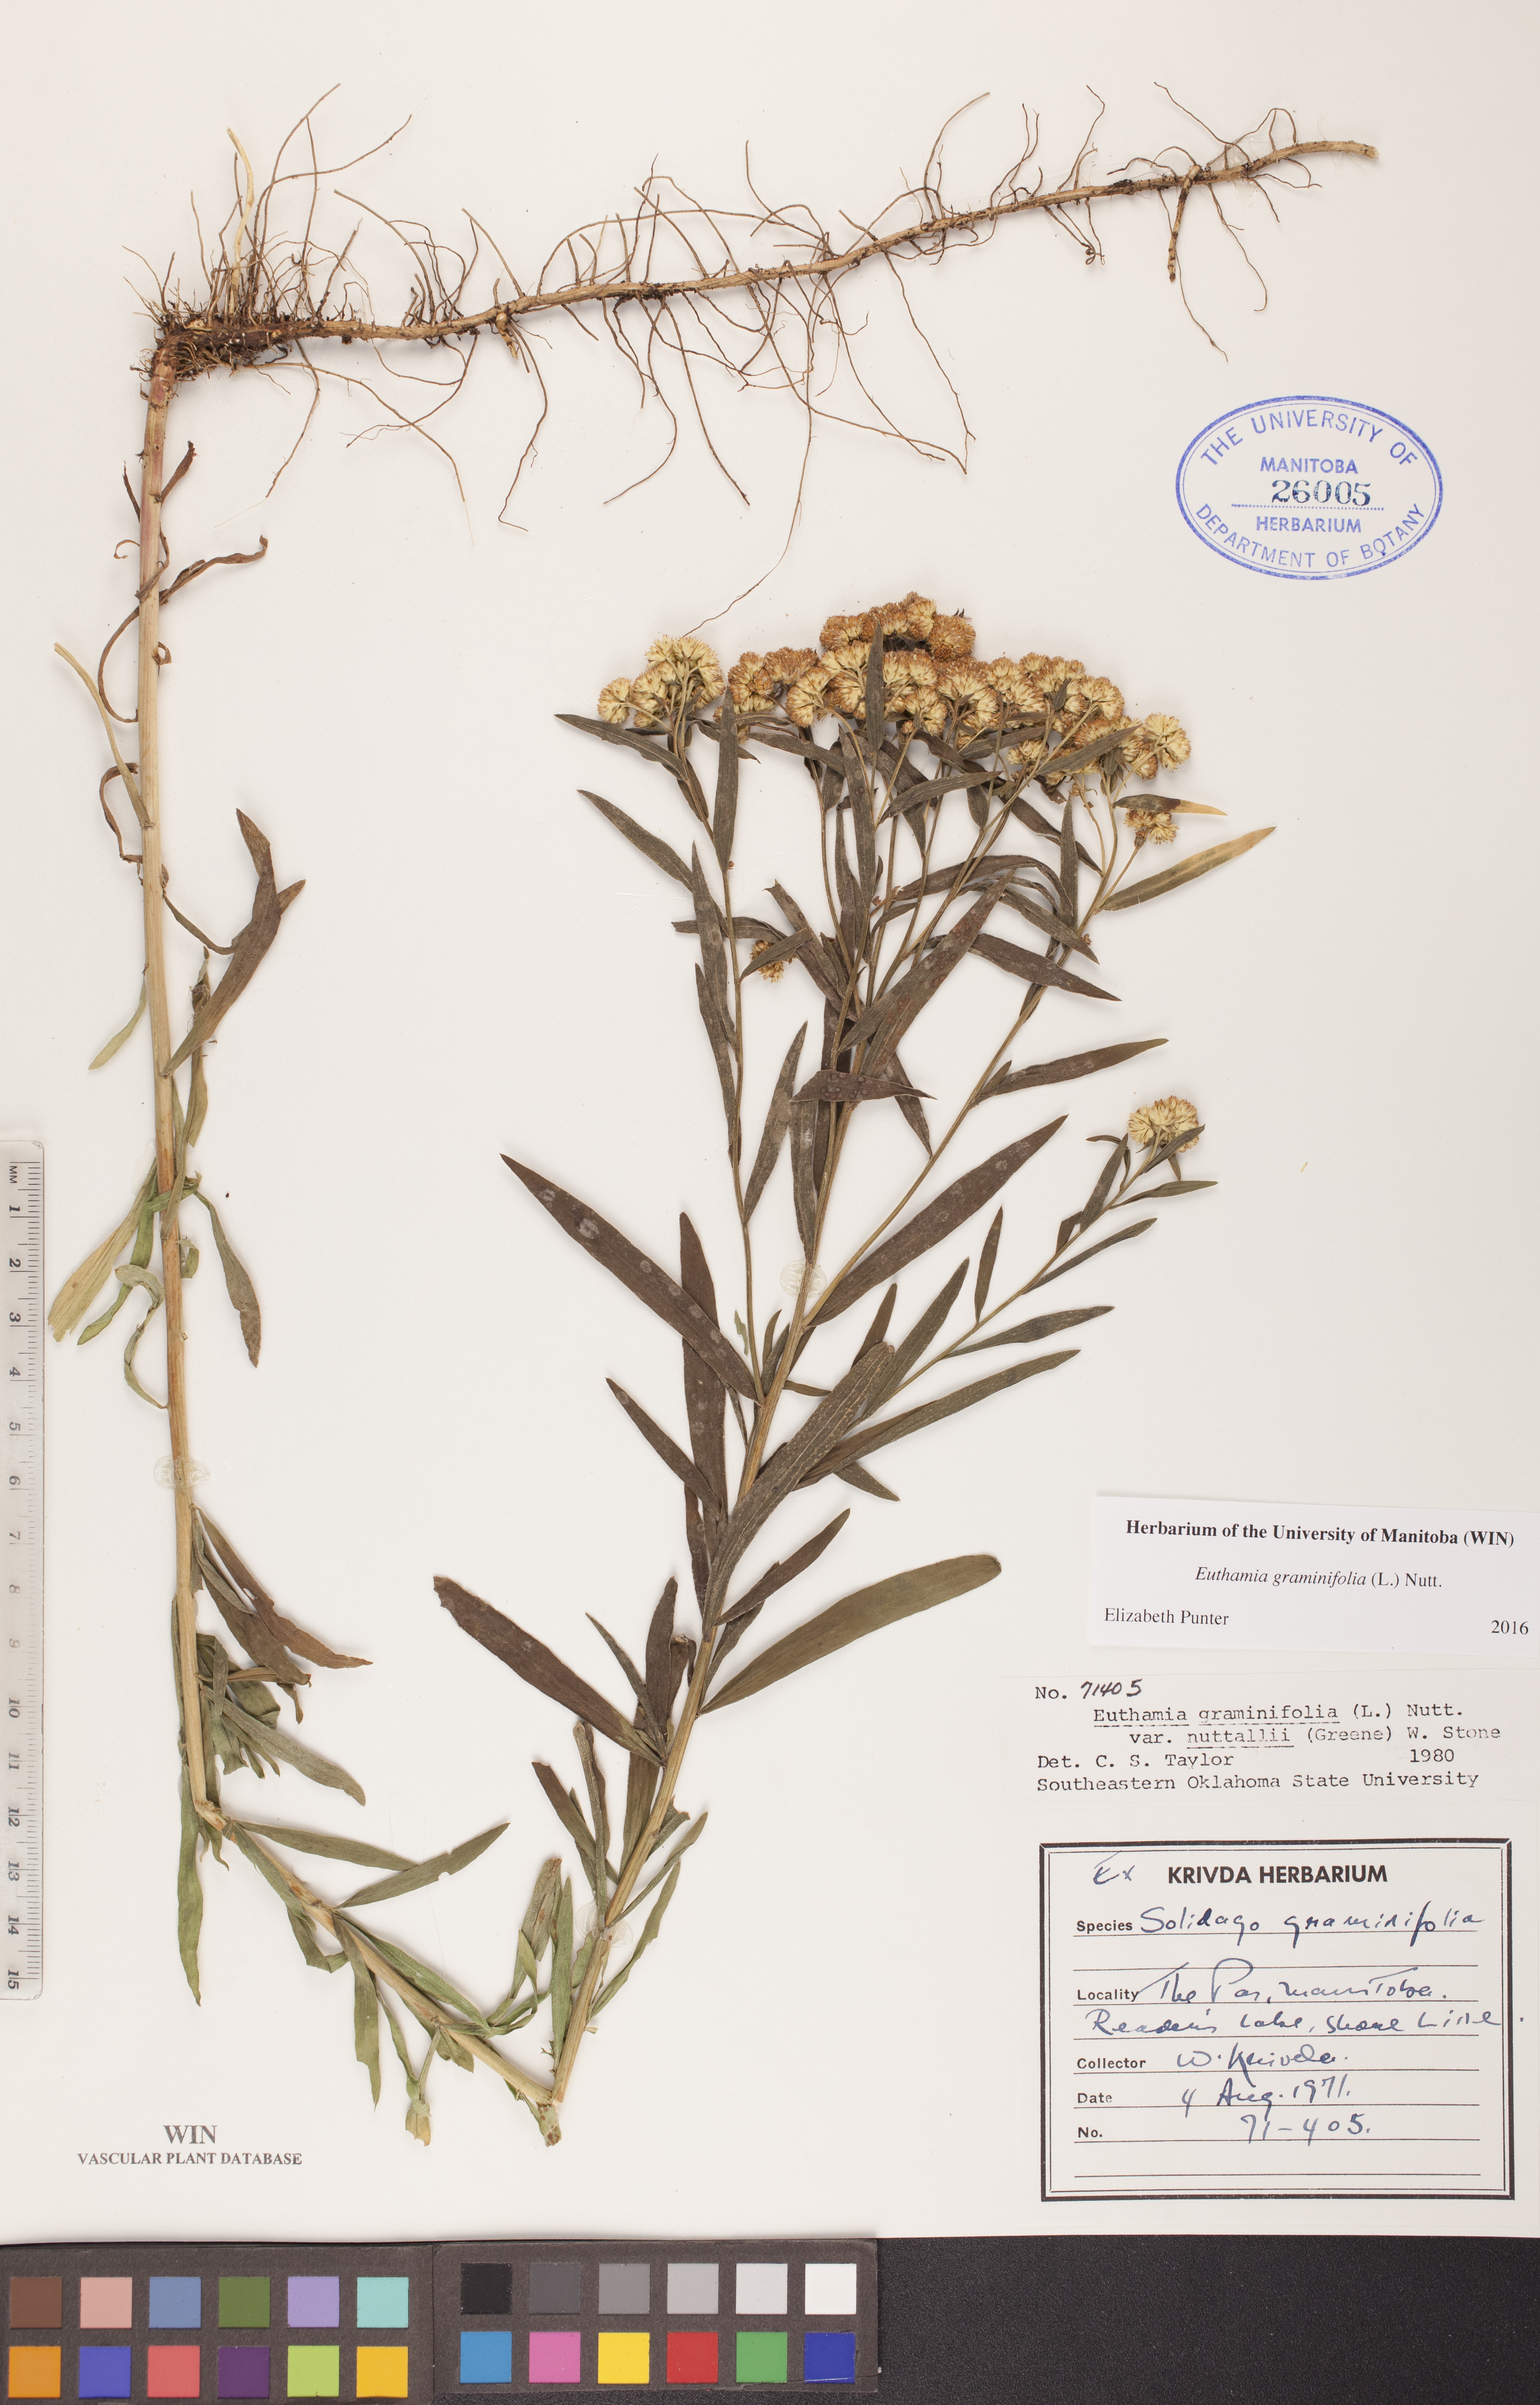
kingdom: Plantae
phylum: Tracheophyta
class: Magnoliopsida
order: Asterales
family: Asteraceae
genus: Euthamia
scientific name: Euthamia graminifolia
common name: Common goldentop
